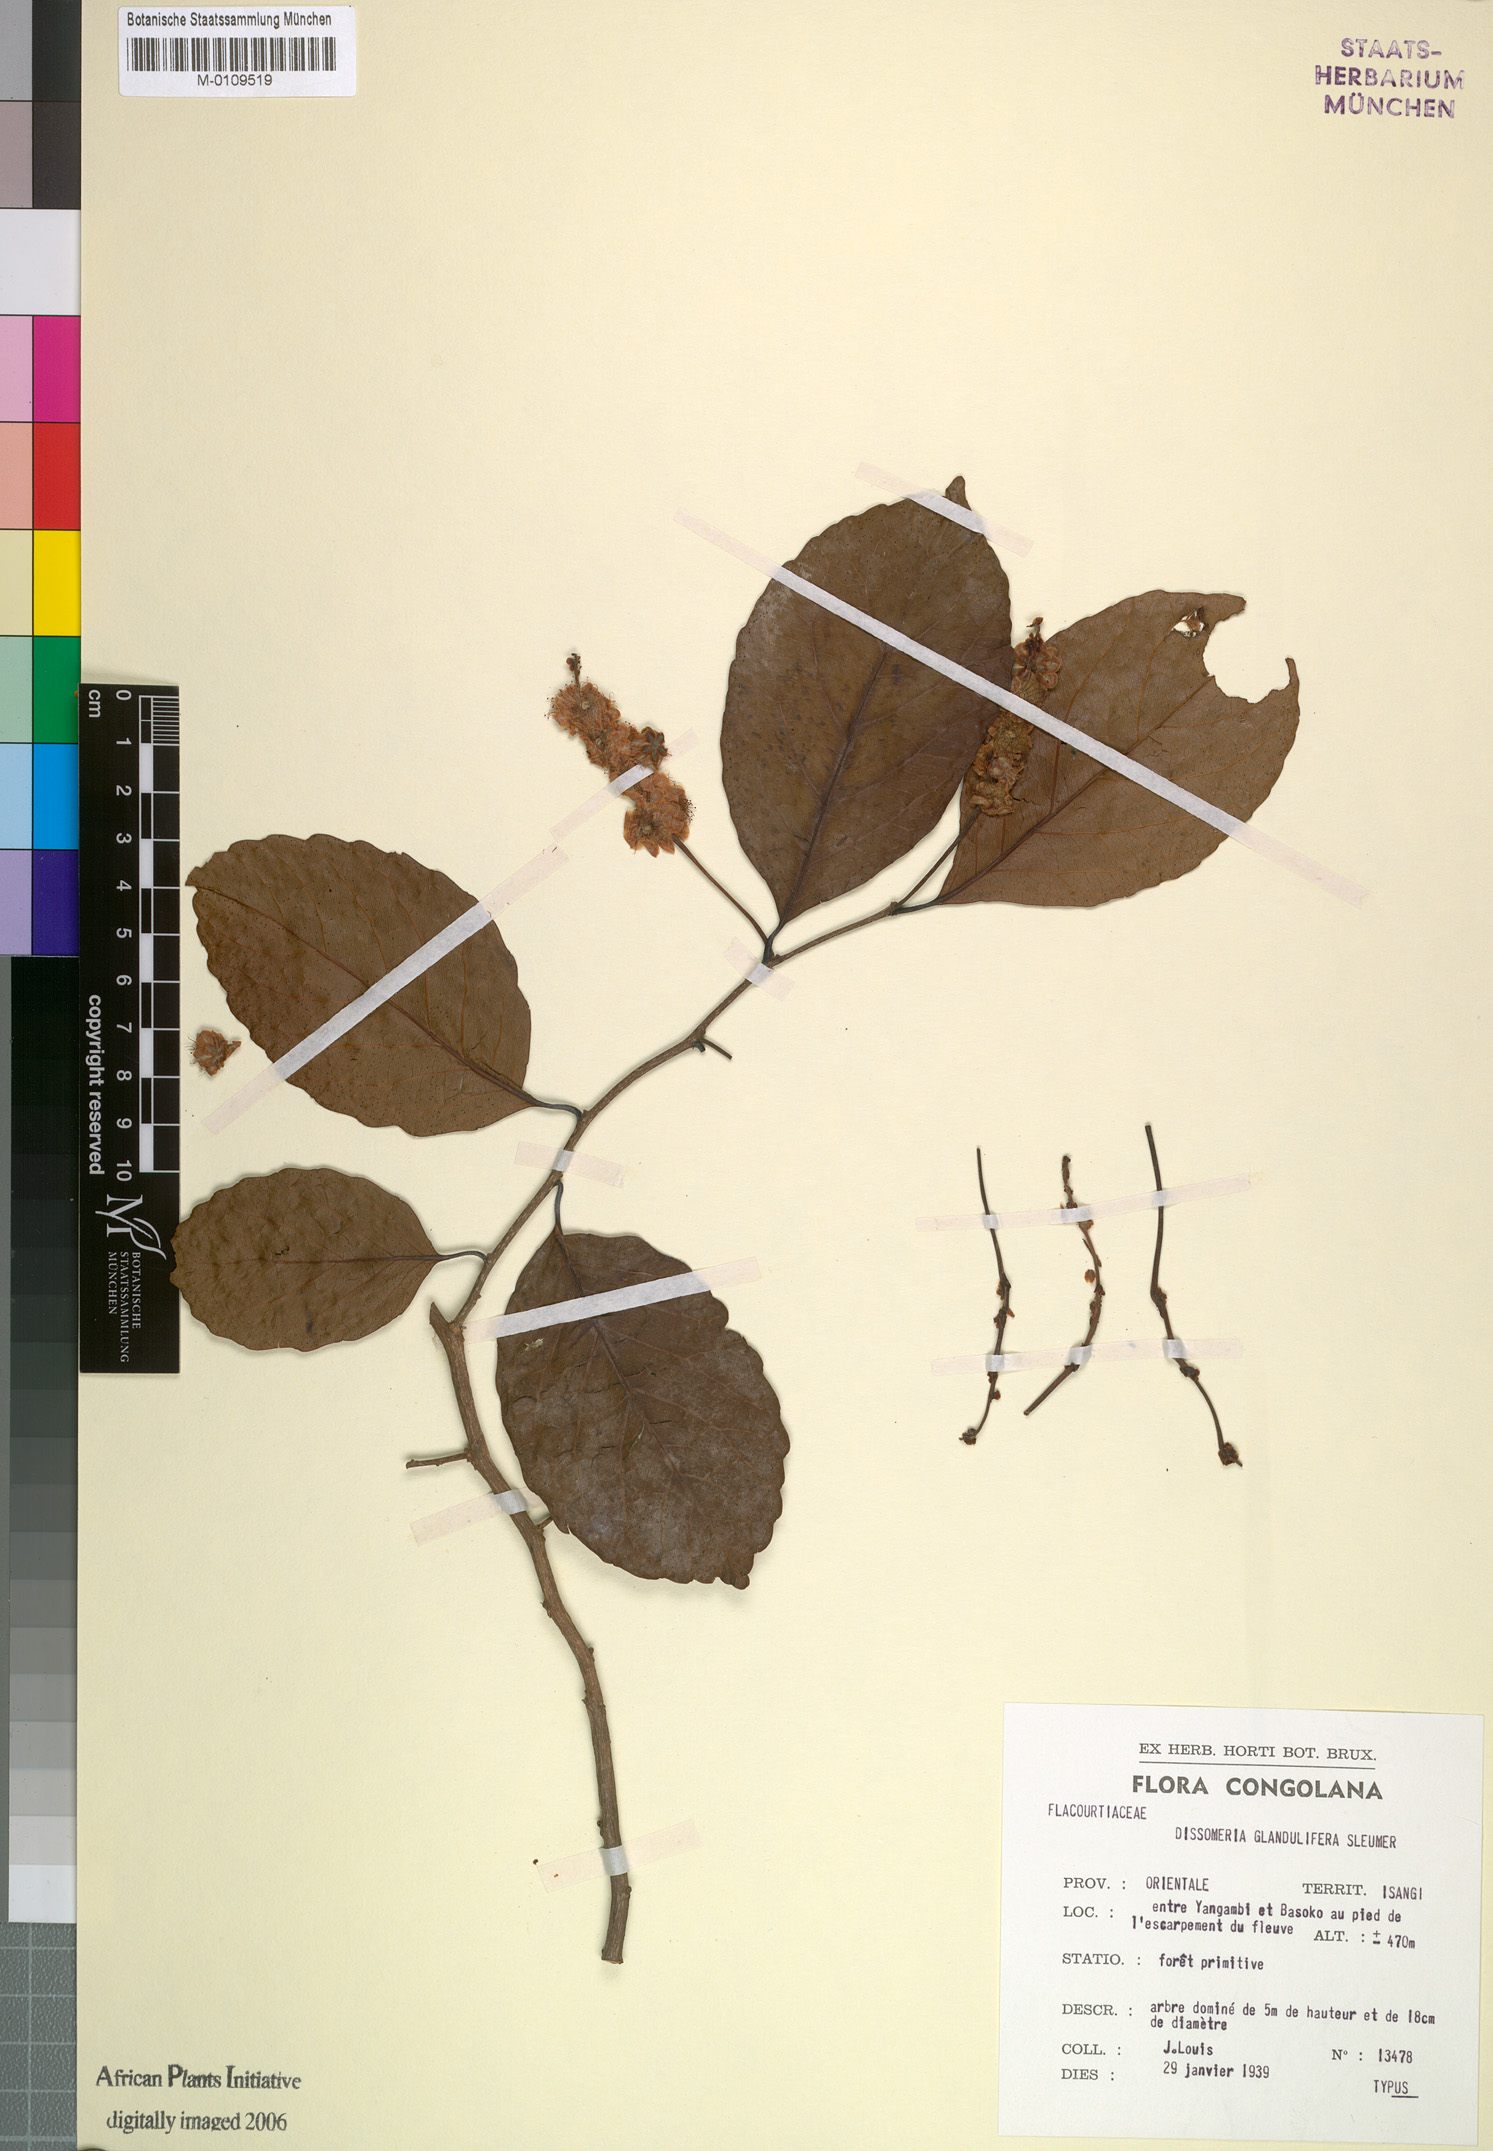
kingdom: Plantae
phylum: Tracheophyta
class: Magnoliopsida
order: Malpighiales
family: Salicaceae
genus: Dissomeria
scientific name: Dissomeria glanduligera
